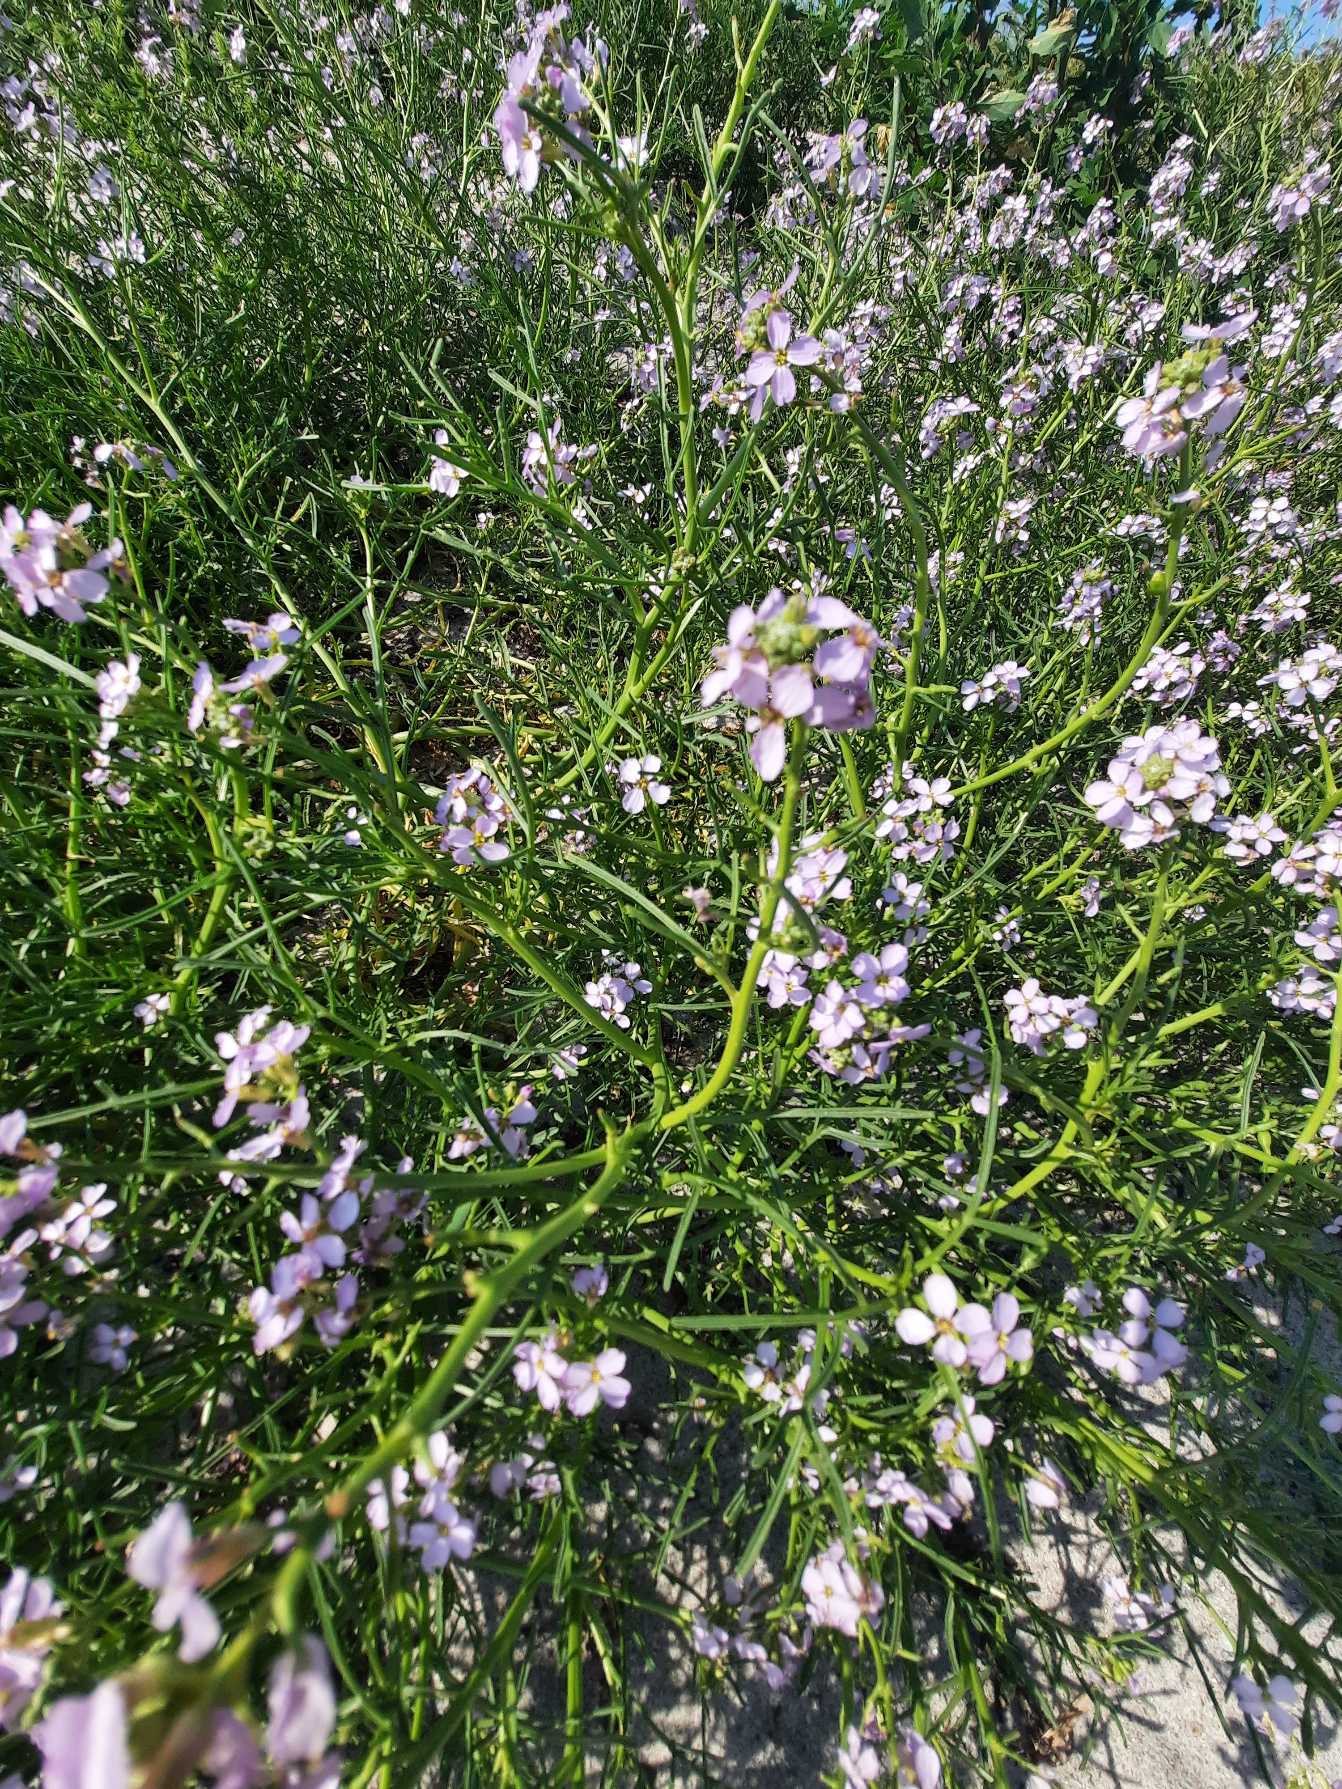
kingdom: Plantae
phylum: Tracheophyta
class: Magnoliopsida
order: Brassicales
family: Brassicaceae
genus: Cakile
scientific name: Cakile maritima
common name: Strandsennep
